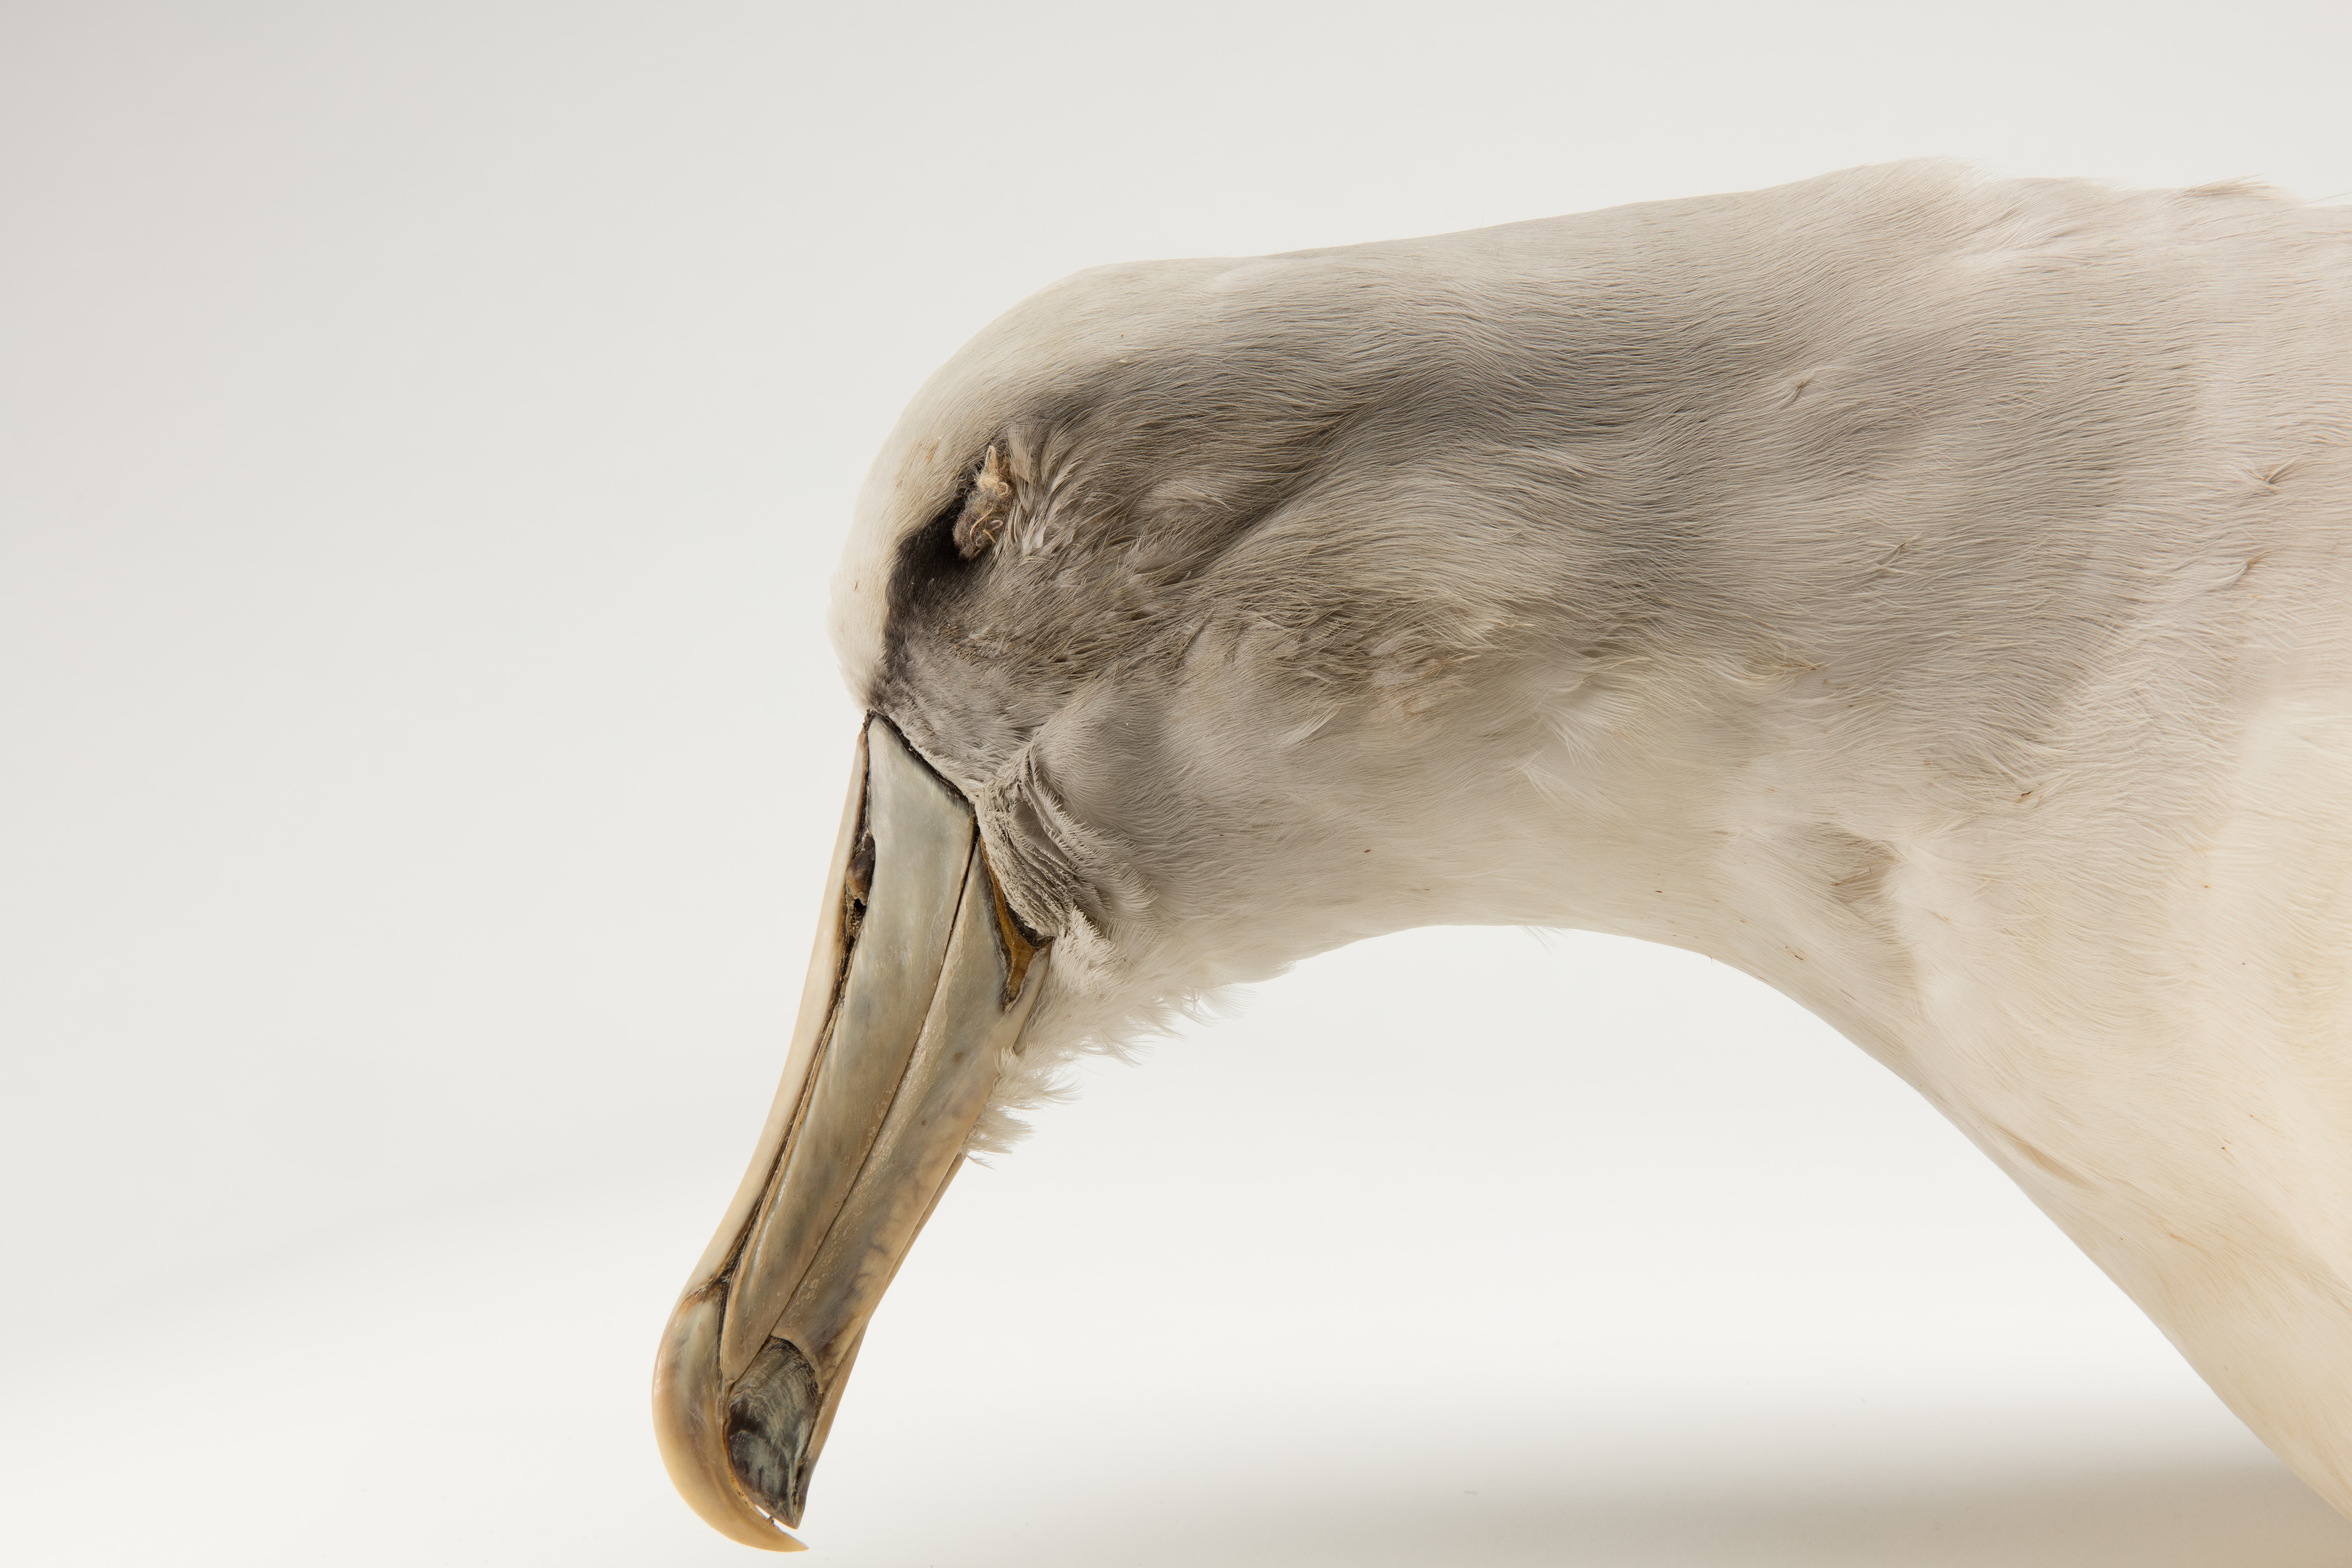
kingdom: Animalia
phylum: Chordata
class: Aves
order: Procellariiformes
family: Diomedeidae
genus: Thalassarche
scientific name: Thalassarche salvini
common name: Salvin's albatross
